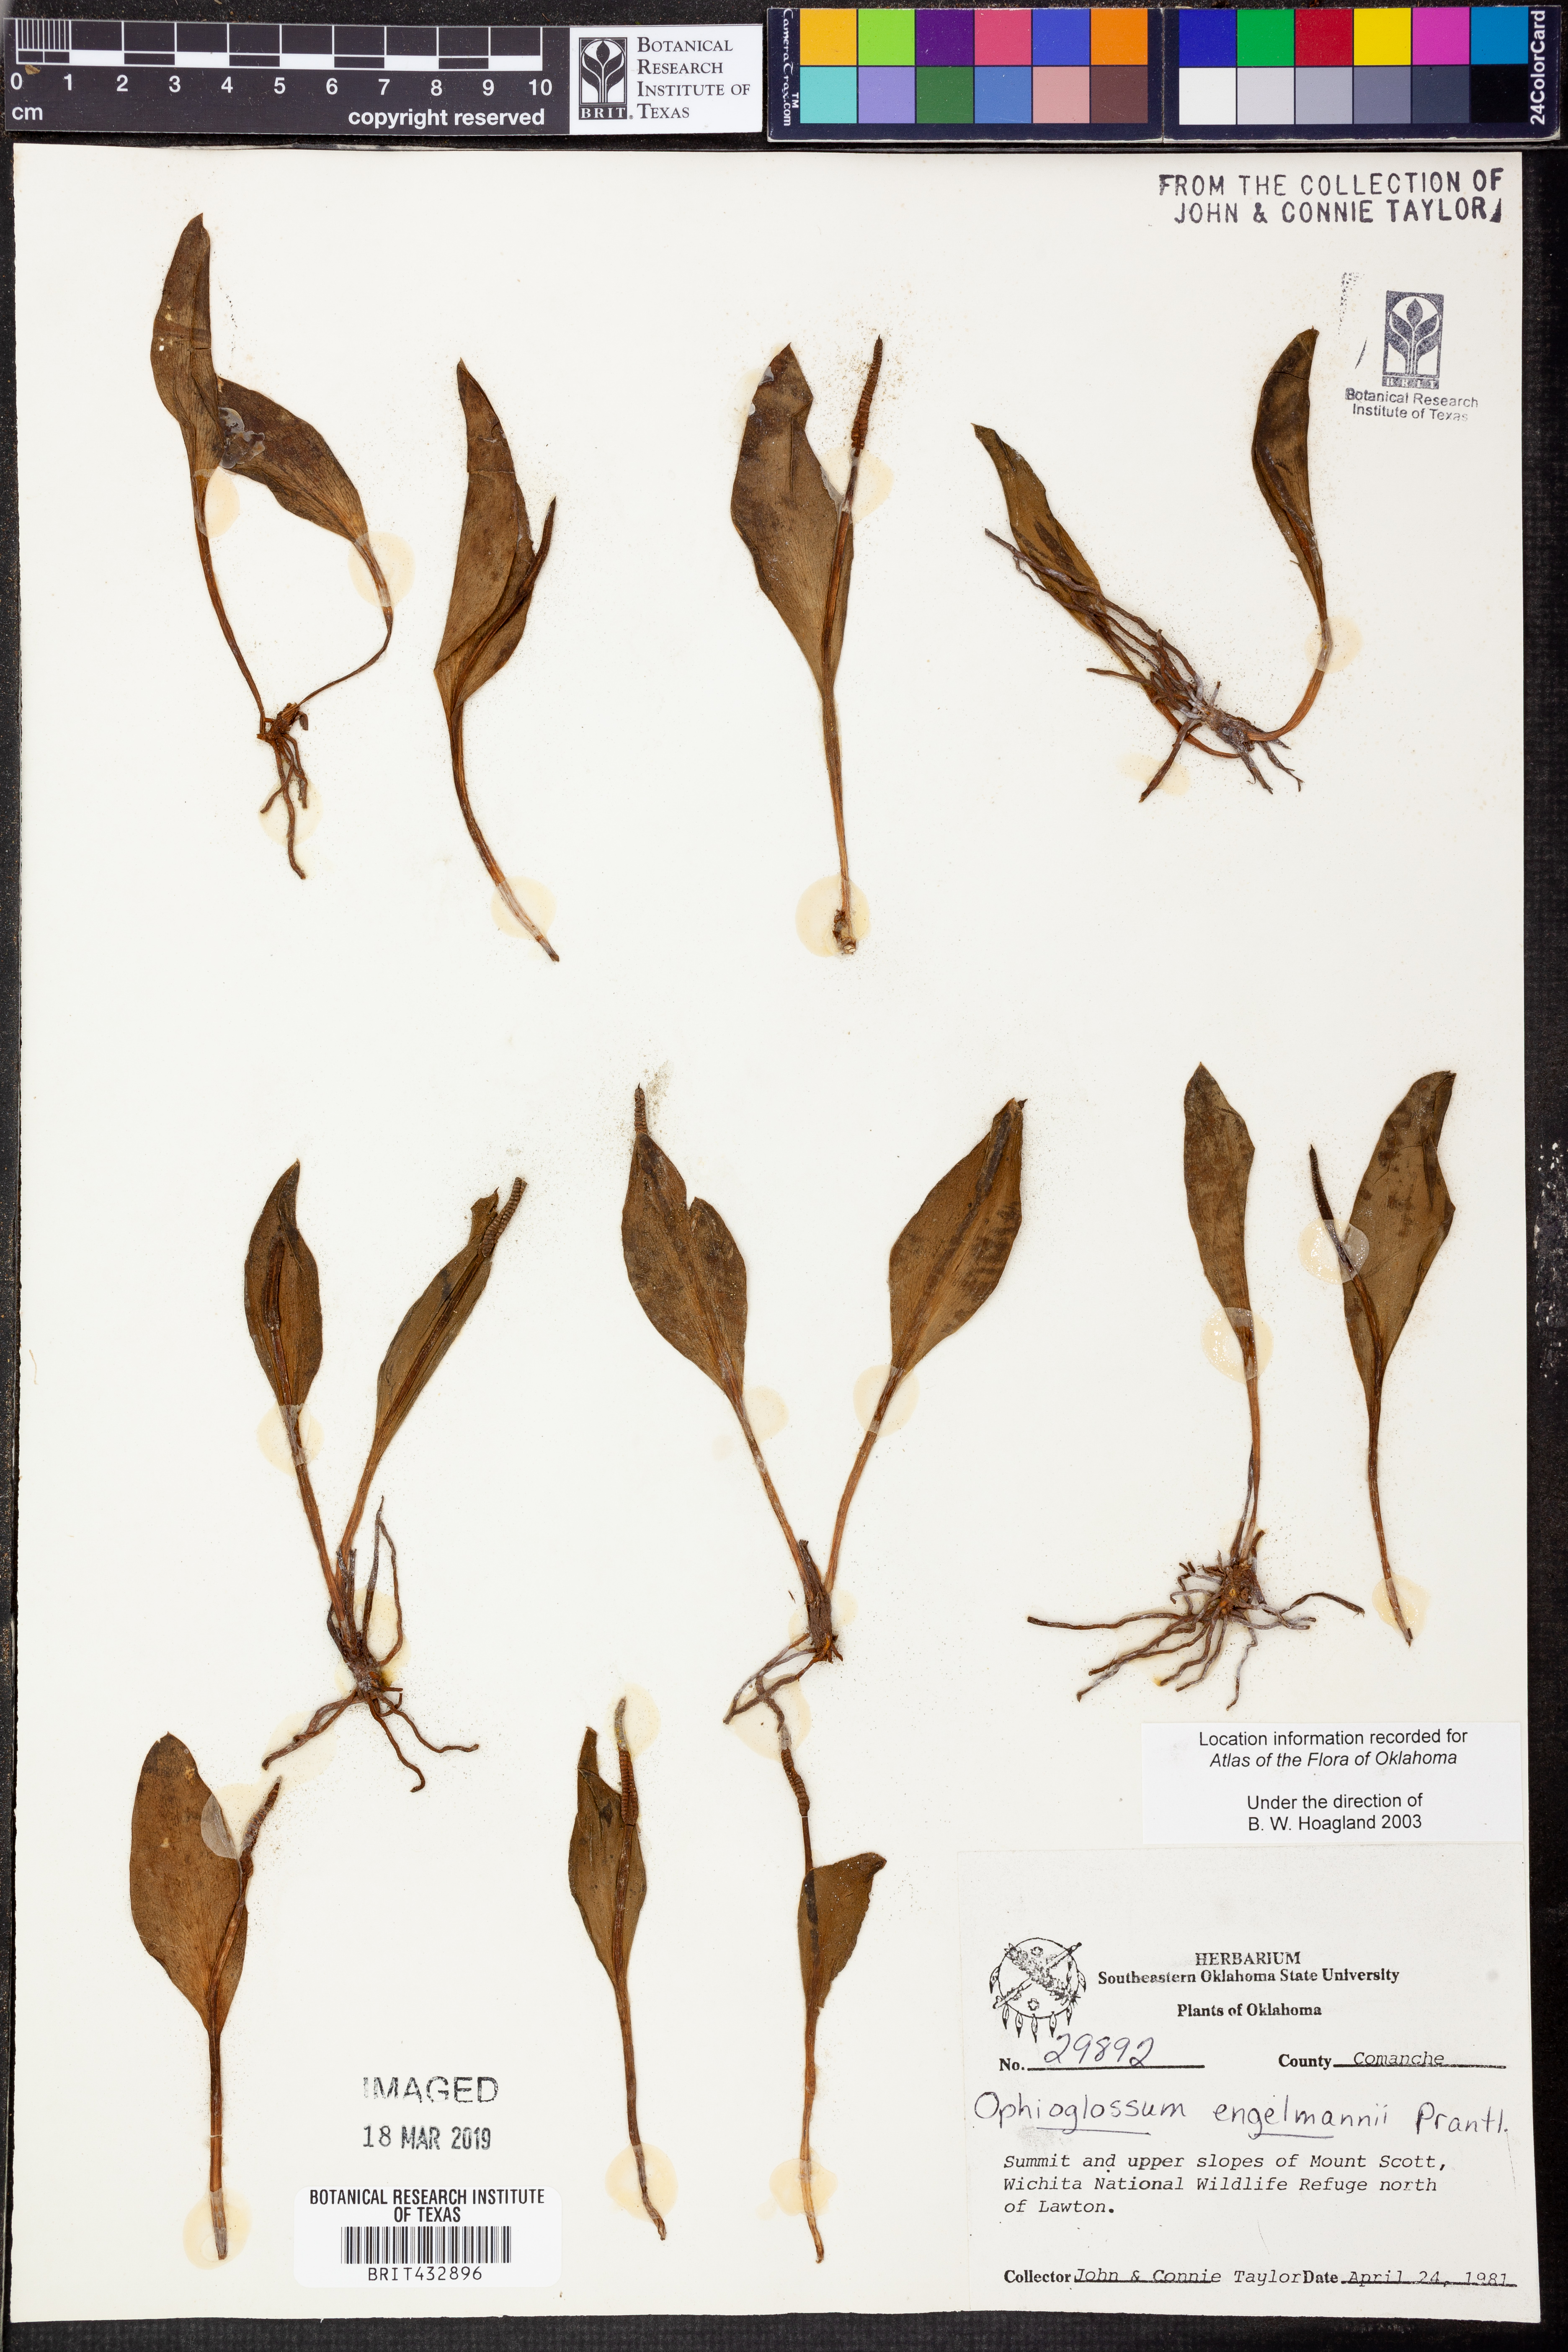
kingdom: Plantae
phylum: Tracheophyta
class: Polypodiopsida
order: Ophioglossales
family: Ophioglossaceae
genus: Ophioglossum
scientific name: Ophioglossum engelmannii
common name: Limestone adder's-tongue
